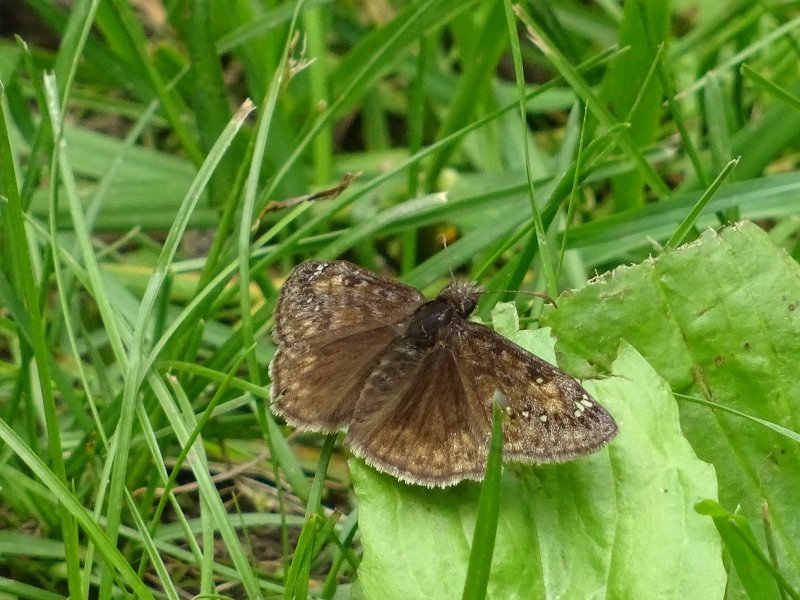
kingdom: Animalia
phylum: Arthropoda
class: Insecta
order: Lepidoptera
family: Hesperiidae
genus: Gesta
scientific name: Gesta
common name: Juvenal's Duskywing
